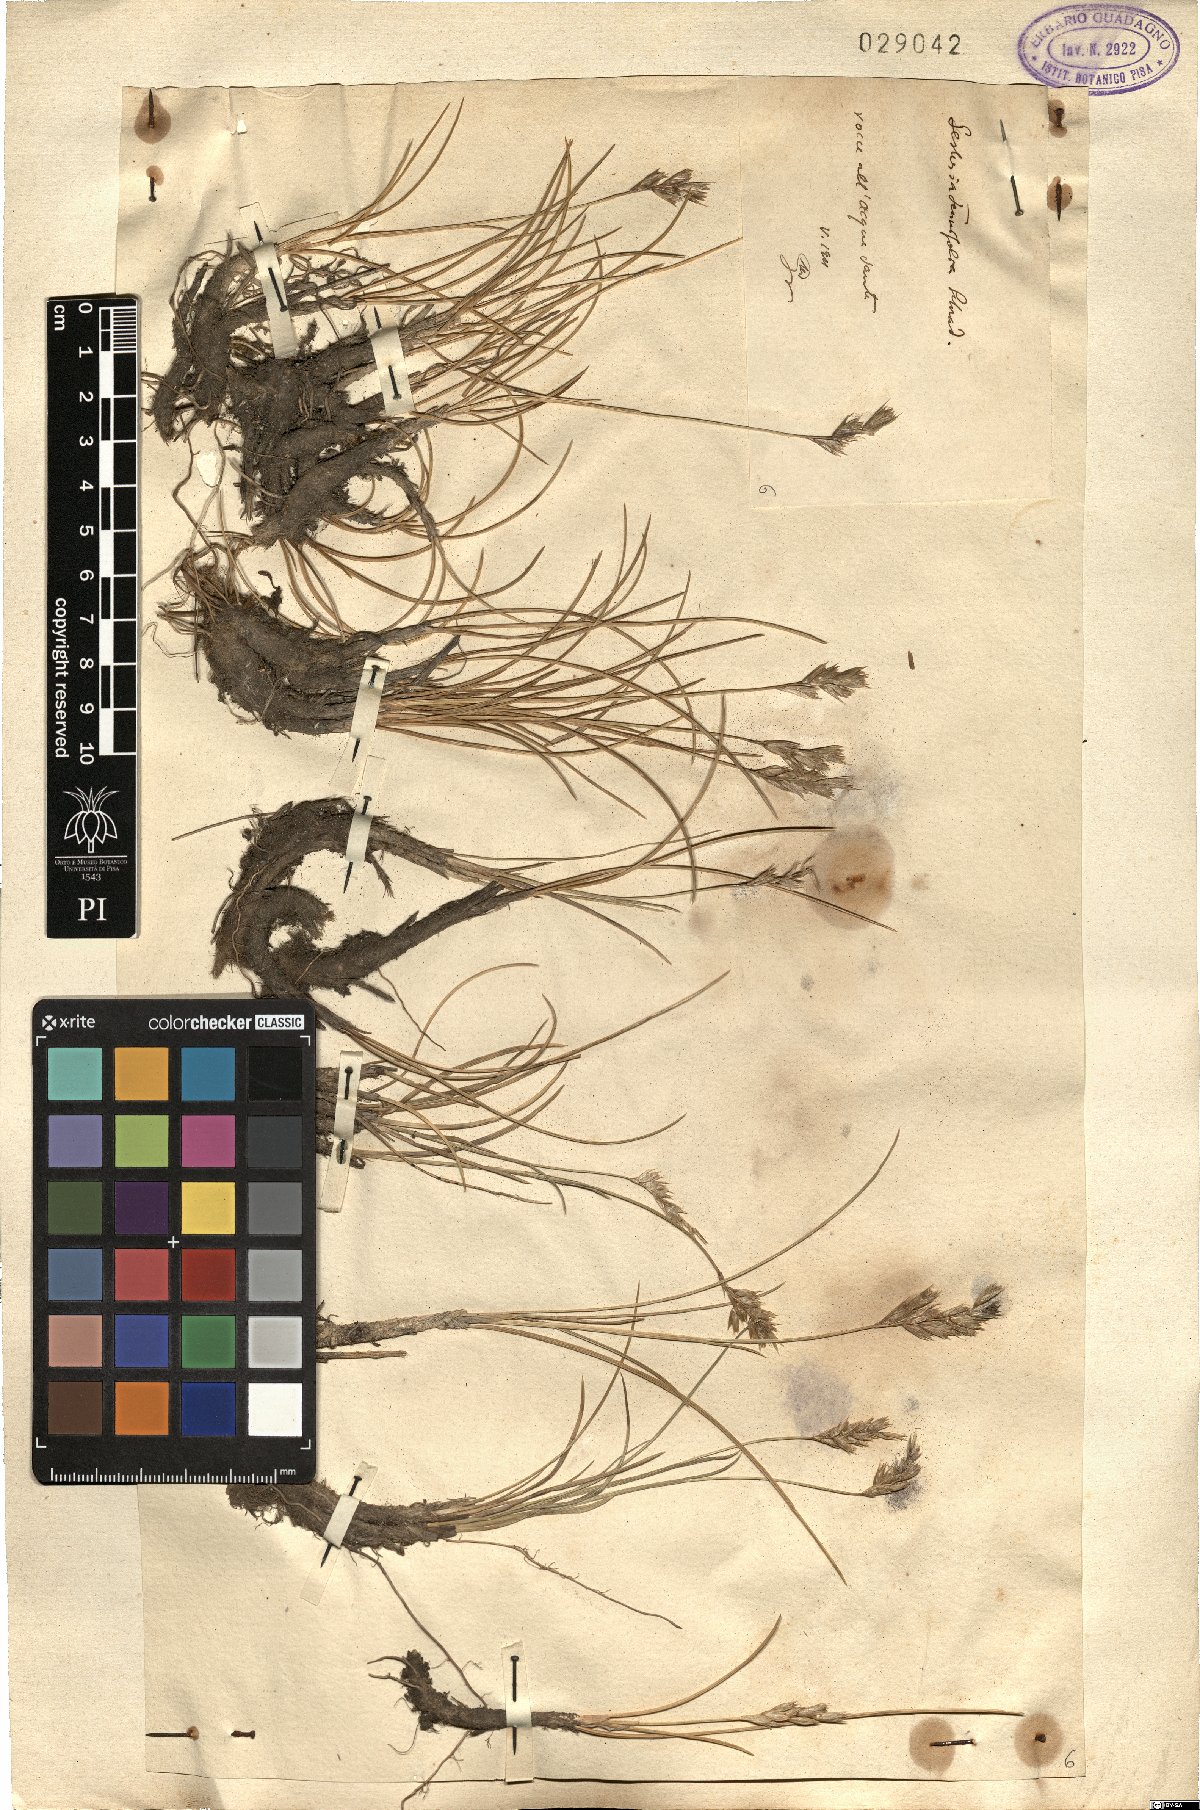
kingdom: Plantae
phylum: Tracheophyta
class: Liliopsida
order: Poales
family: Poaceae
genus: Sesleria
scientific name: Sesleria juncifolia
